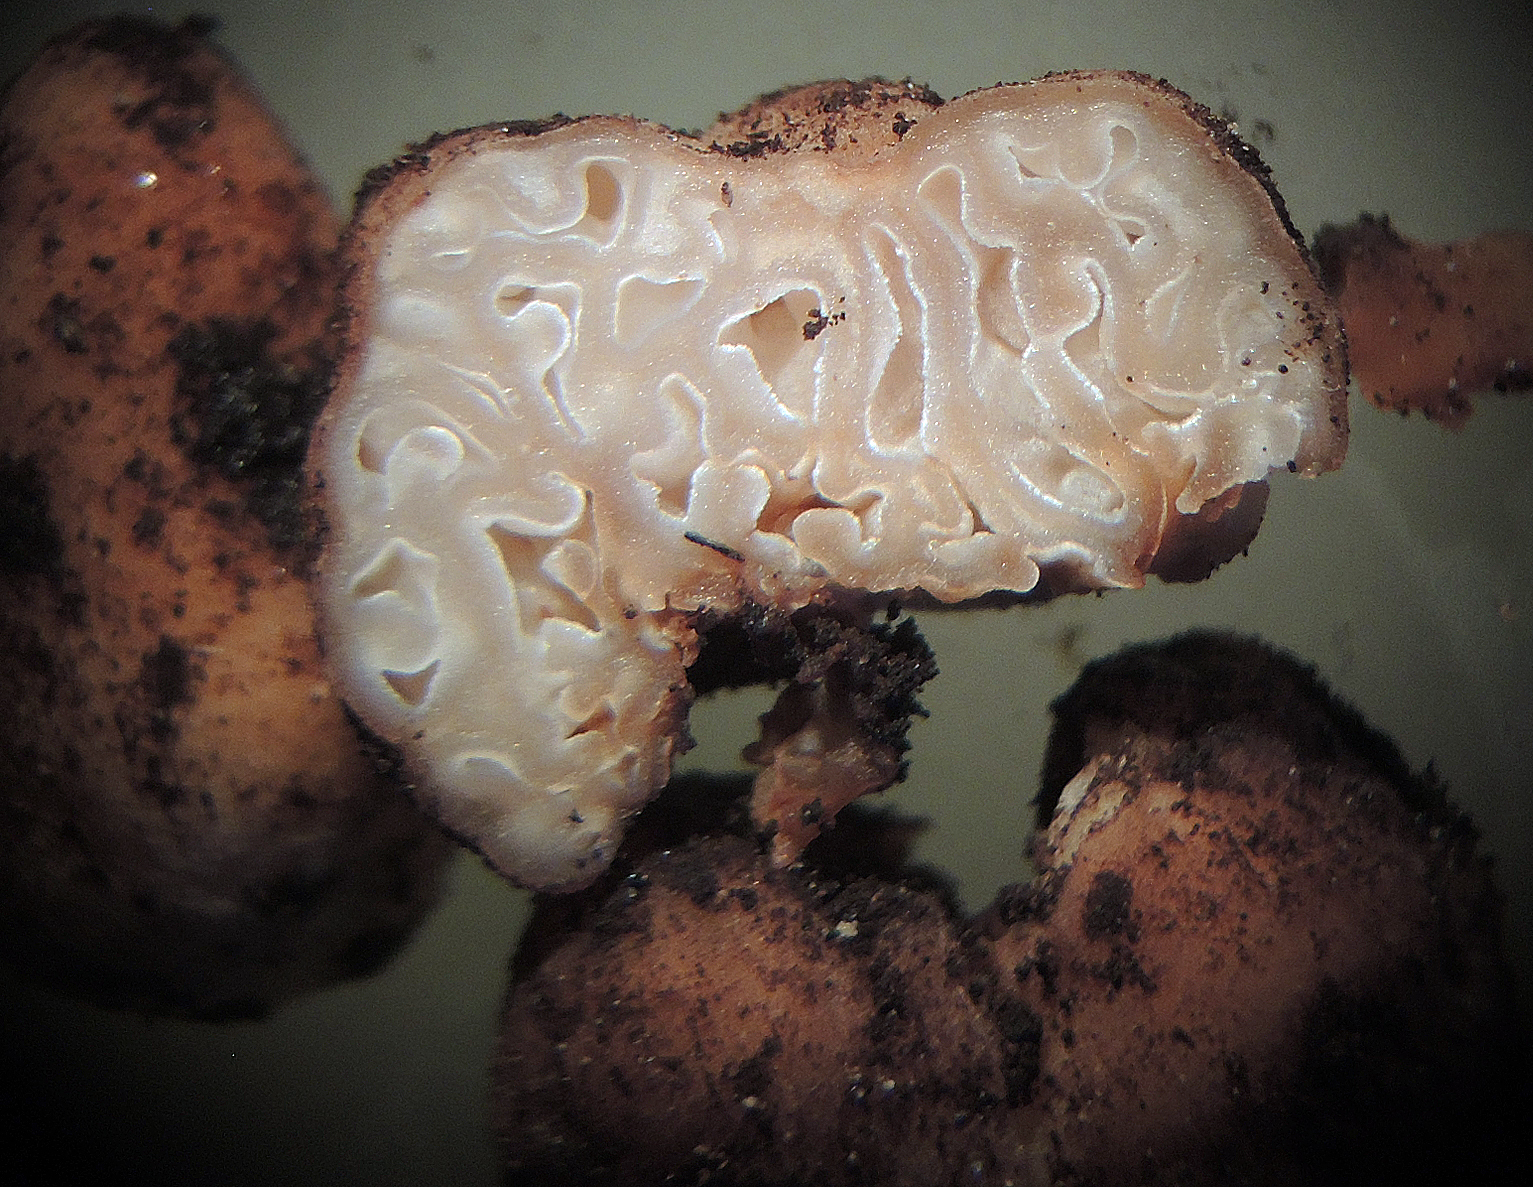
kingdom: Fungi
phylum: Ascomycota
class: Pezizomycetes
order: Pezizales
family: Discinaceae
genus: Hydnotrya
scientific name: Hydnotrya tulasnei
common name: almindelig foldtrøffel
